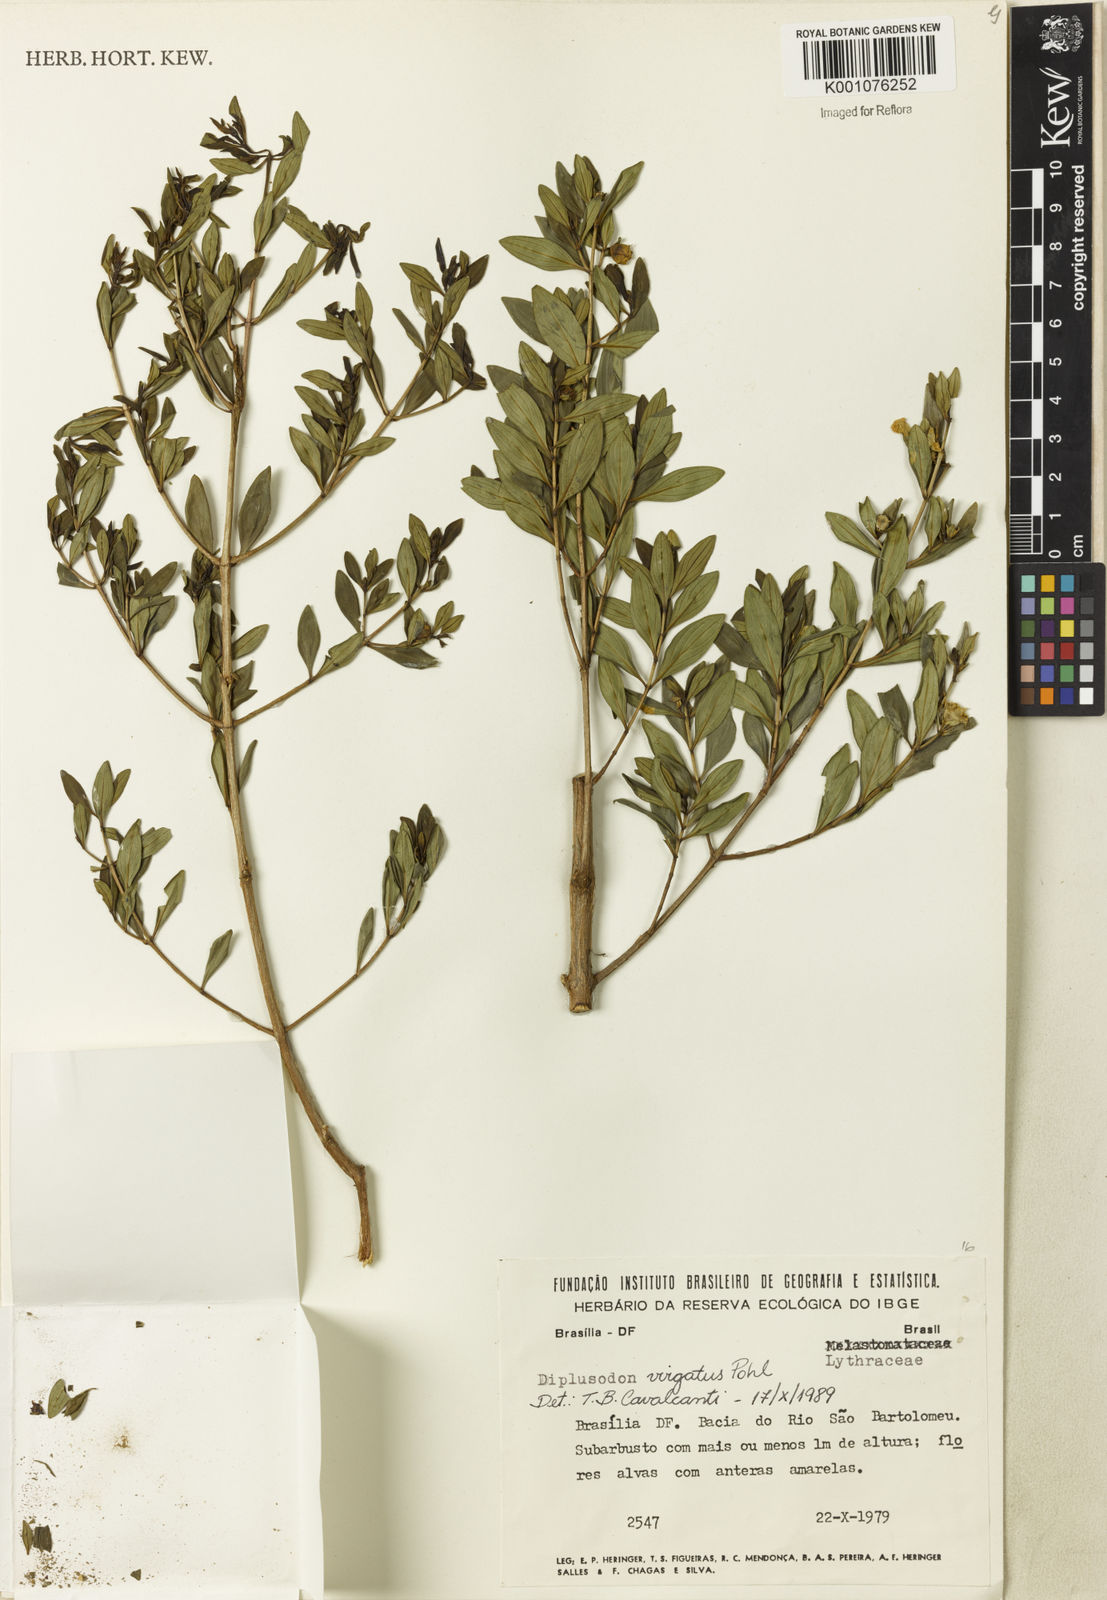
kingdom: Plantae
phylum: Tracheophyta
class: Magnoliopsida
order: Myrtales
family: Lythraceae
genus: Diplusodon
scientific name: Diplusodon virgatus
